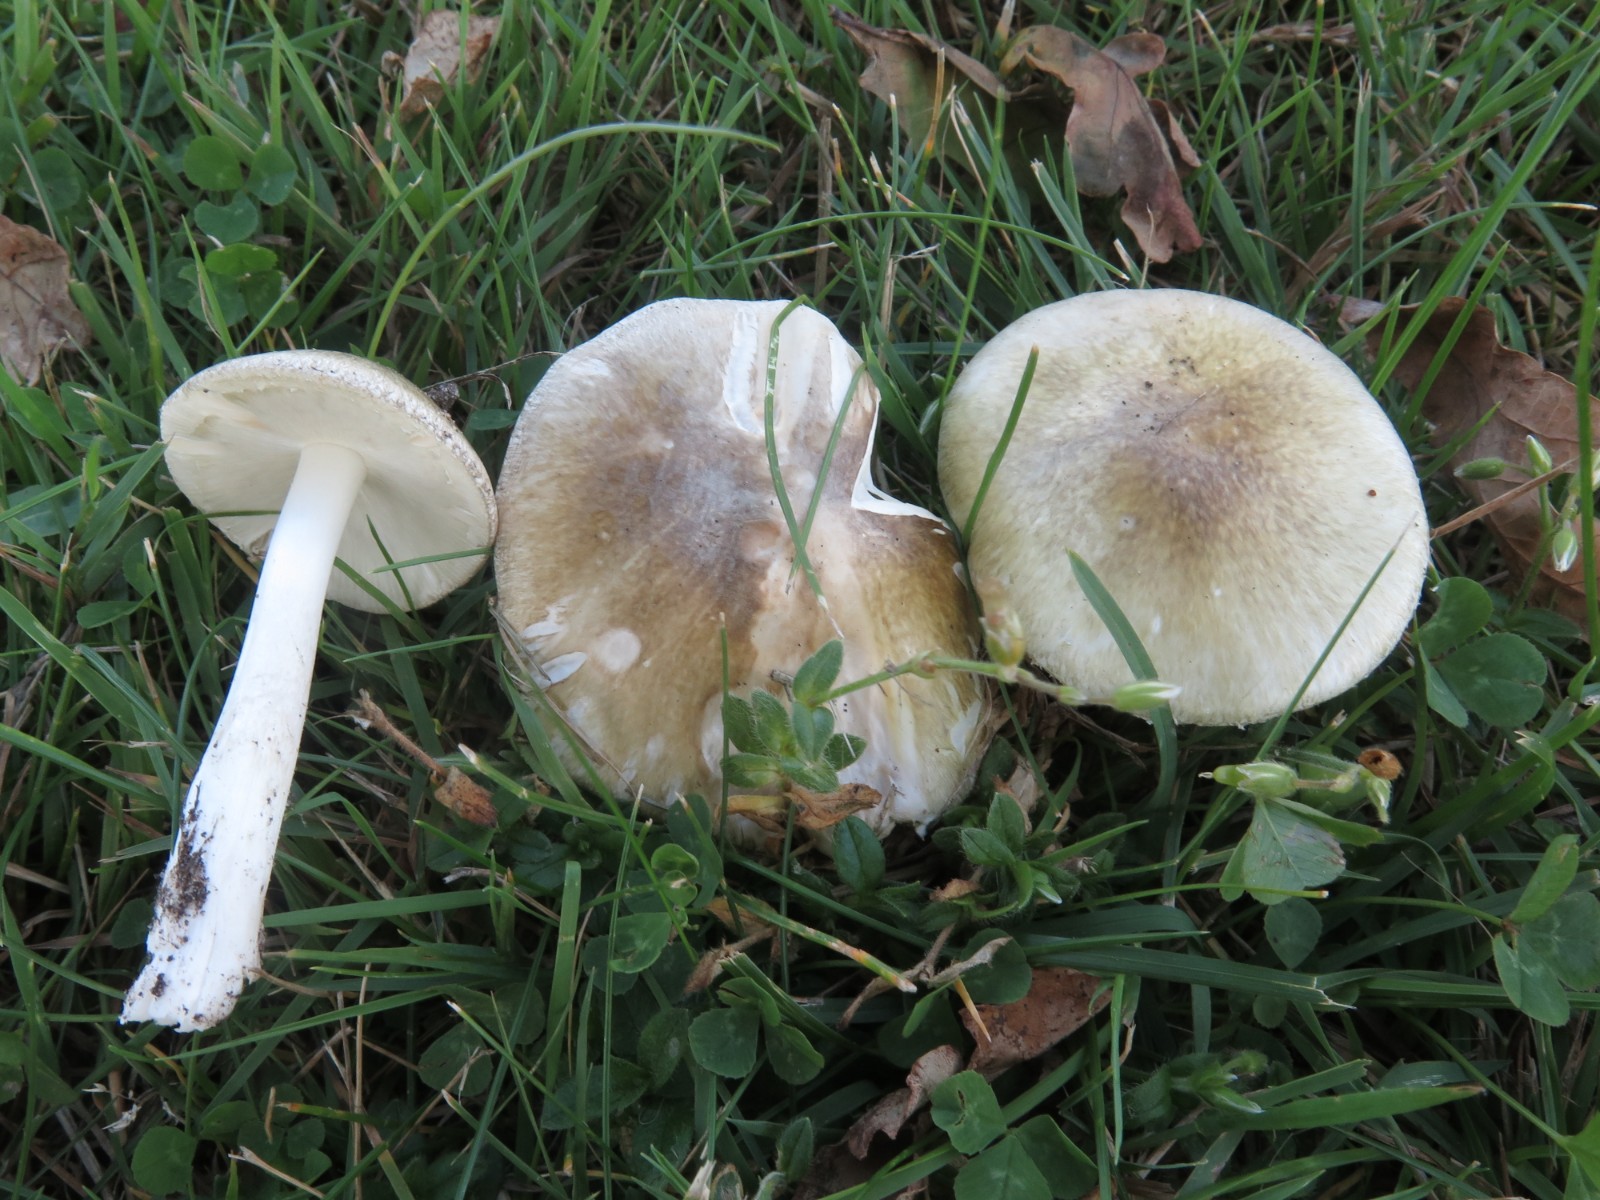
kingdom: Fungi
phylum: Basidiomycota
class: Agaricomycetes
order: Agaricales
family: Amanitaceae
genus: Amanita
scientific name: Amanita phalloides
